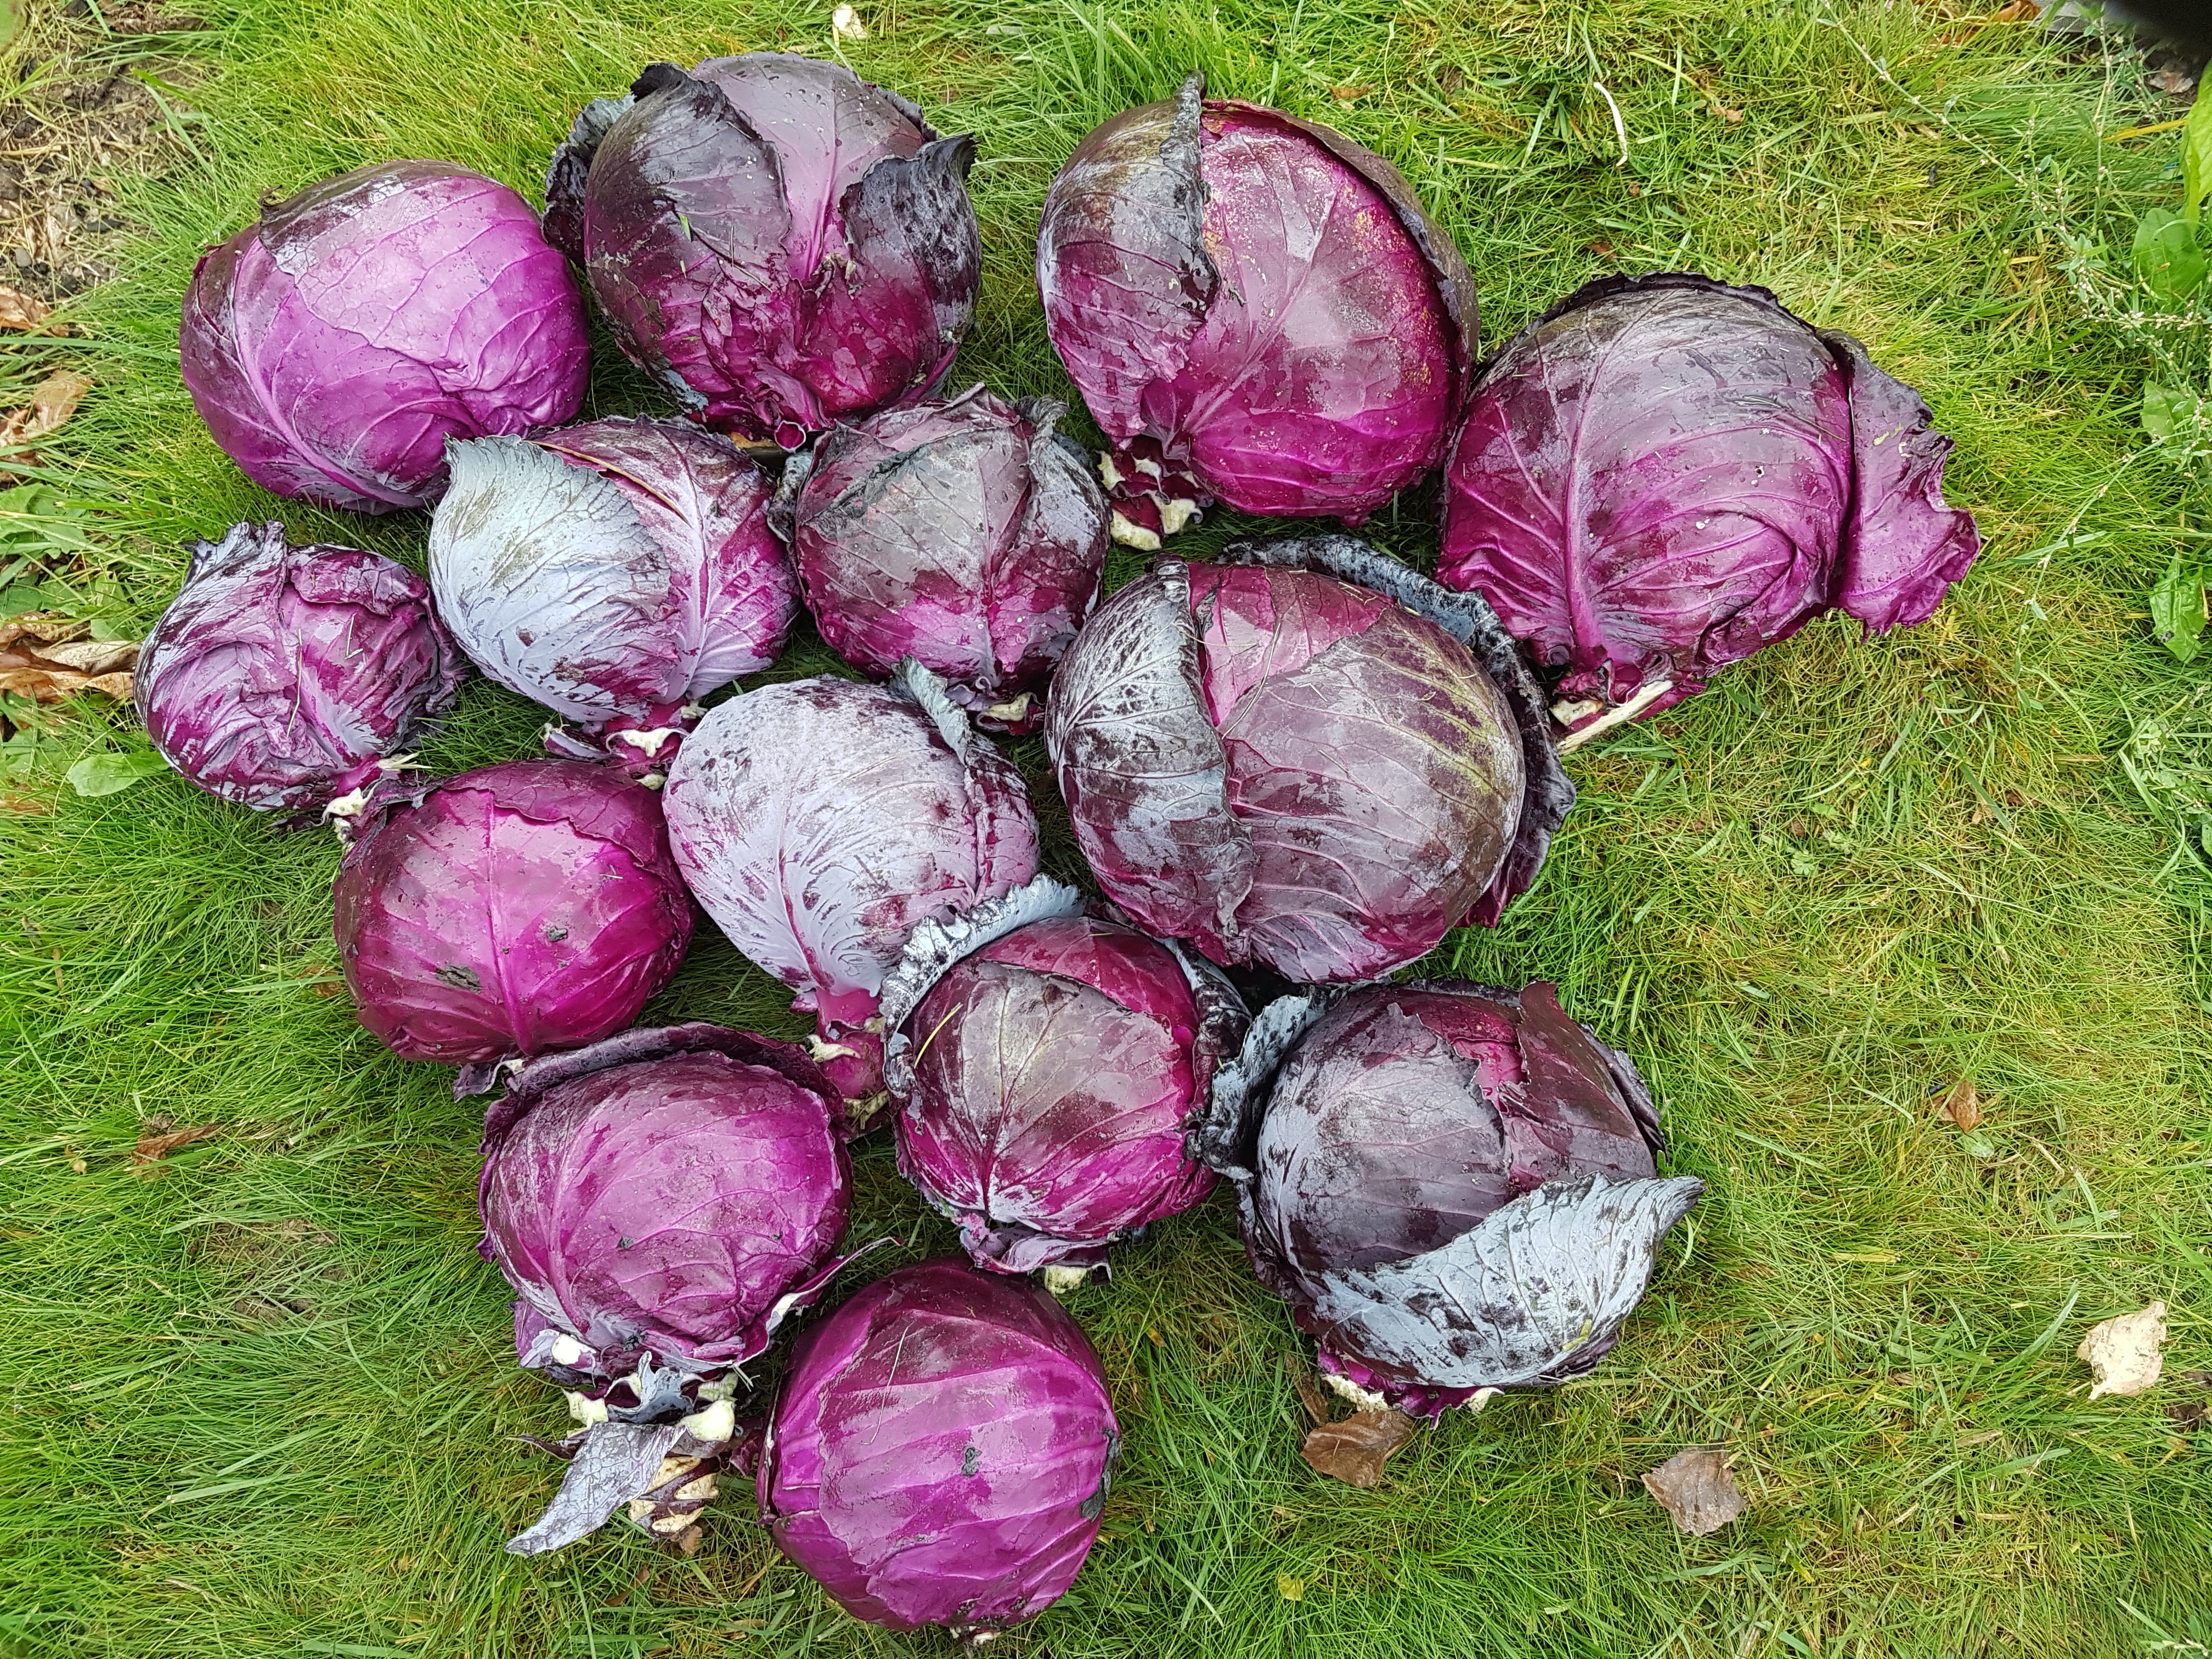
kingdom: Plantae
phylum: Tracheophyta
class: Magnoliopsida
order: Brassicales
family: Brassicaceae
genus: Brassica
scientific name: Brassica oleracea
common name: Cabbage
